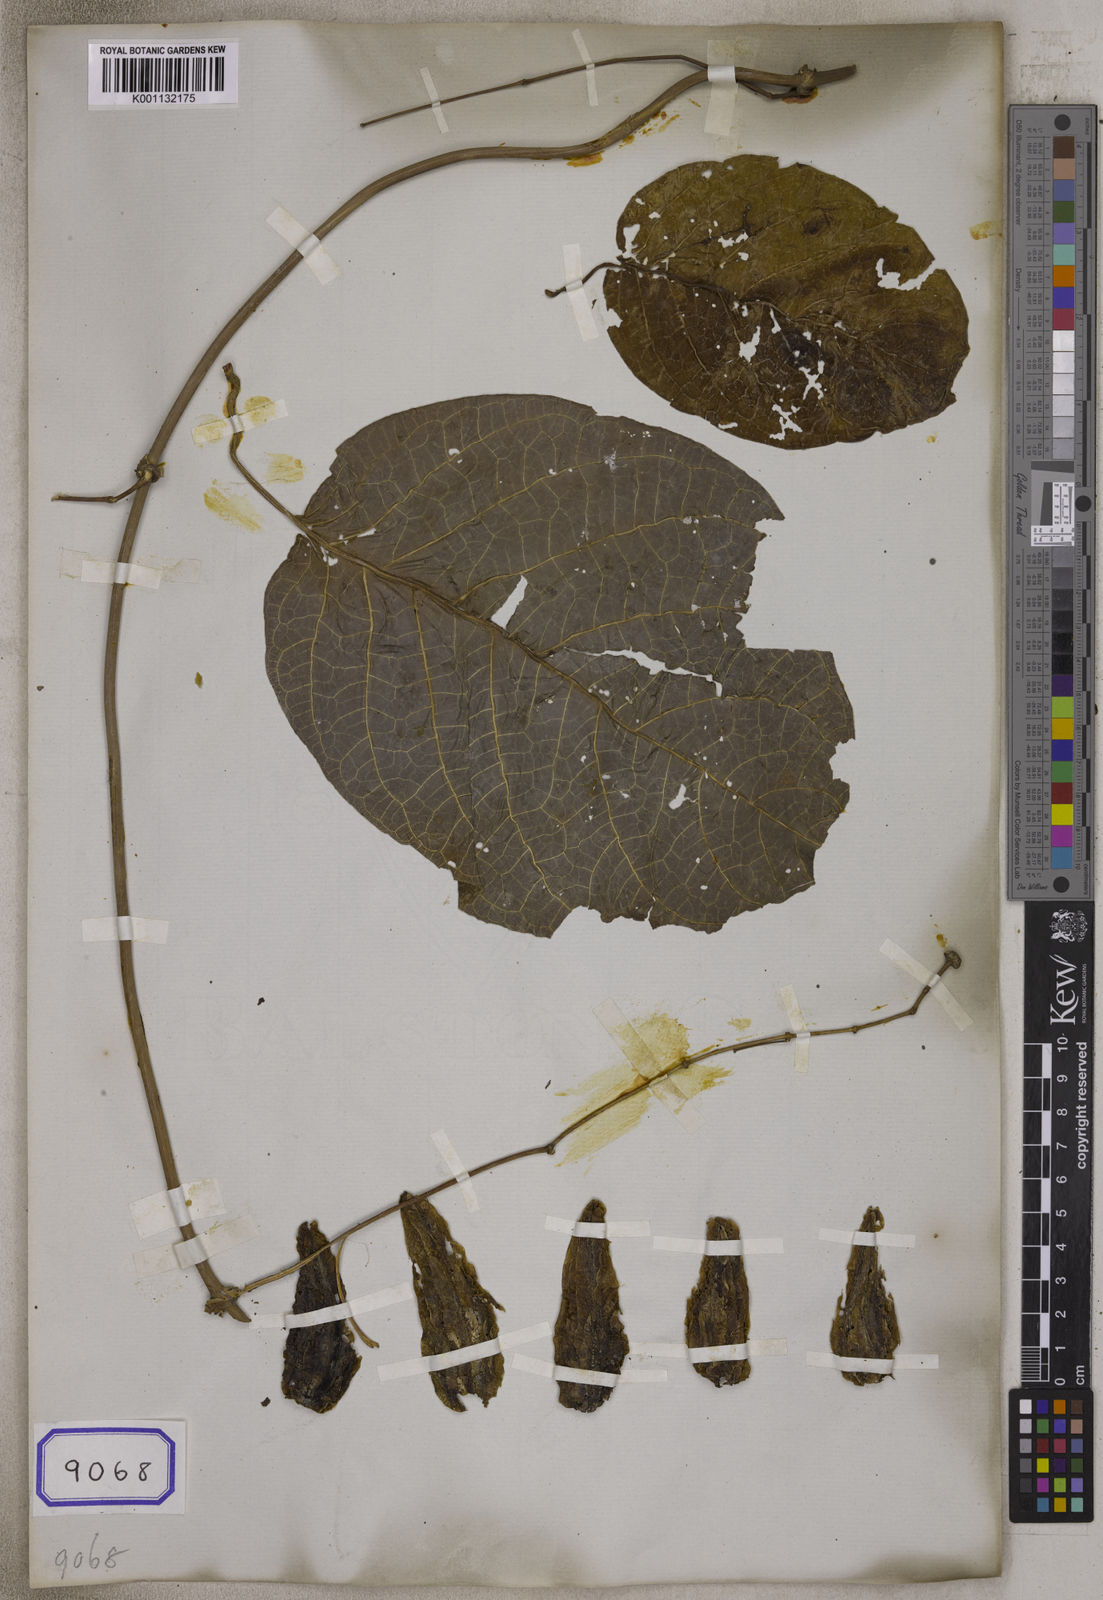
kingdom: Plantae
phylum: Tracheophyta
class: Magnoliopsida
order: Malvales
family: Malvaceae
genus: Vicarya
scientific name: Vicarya
